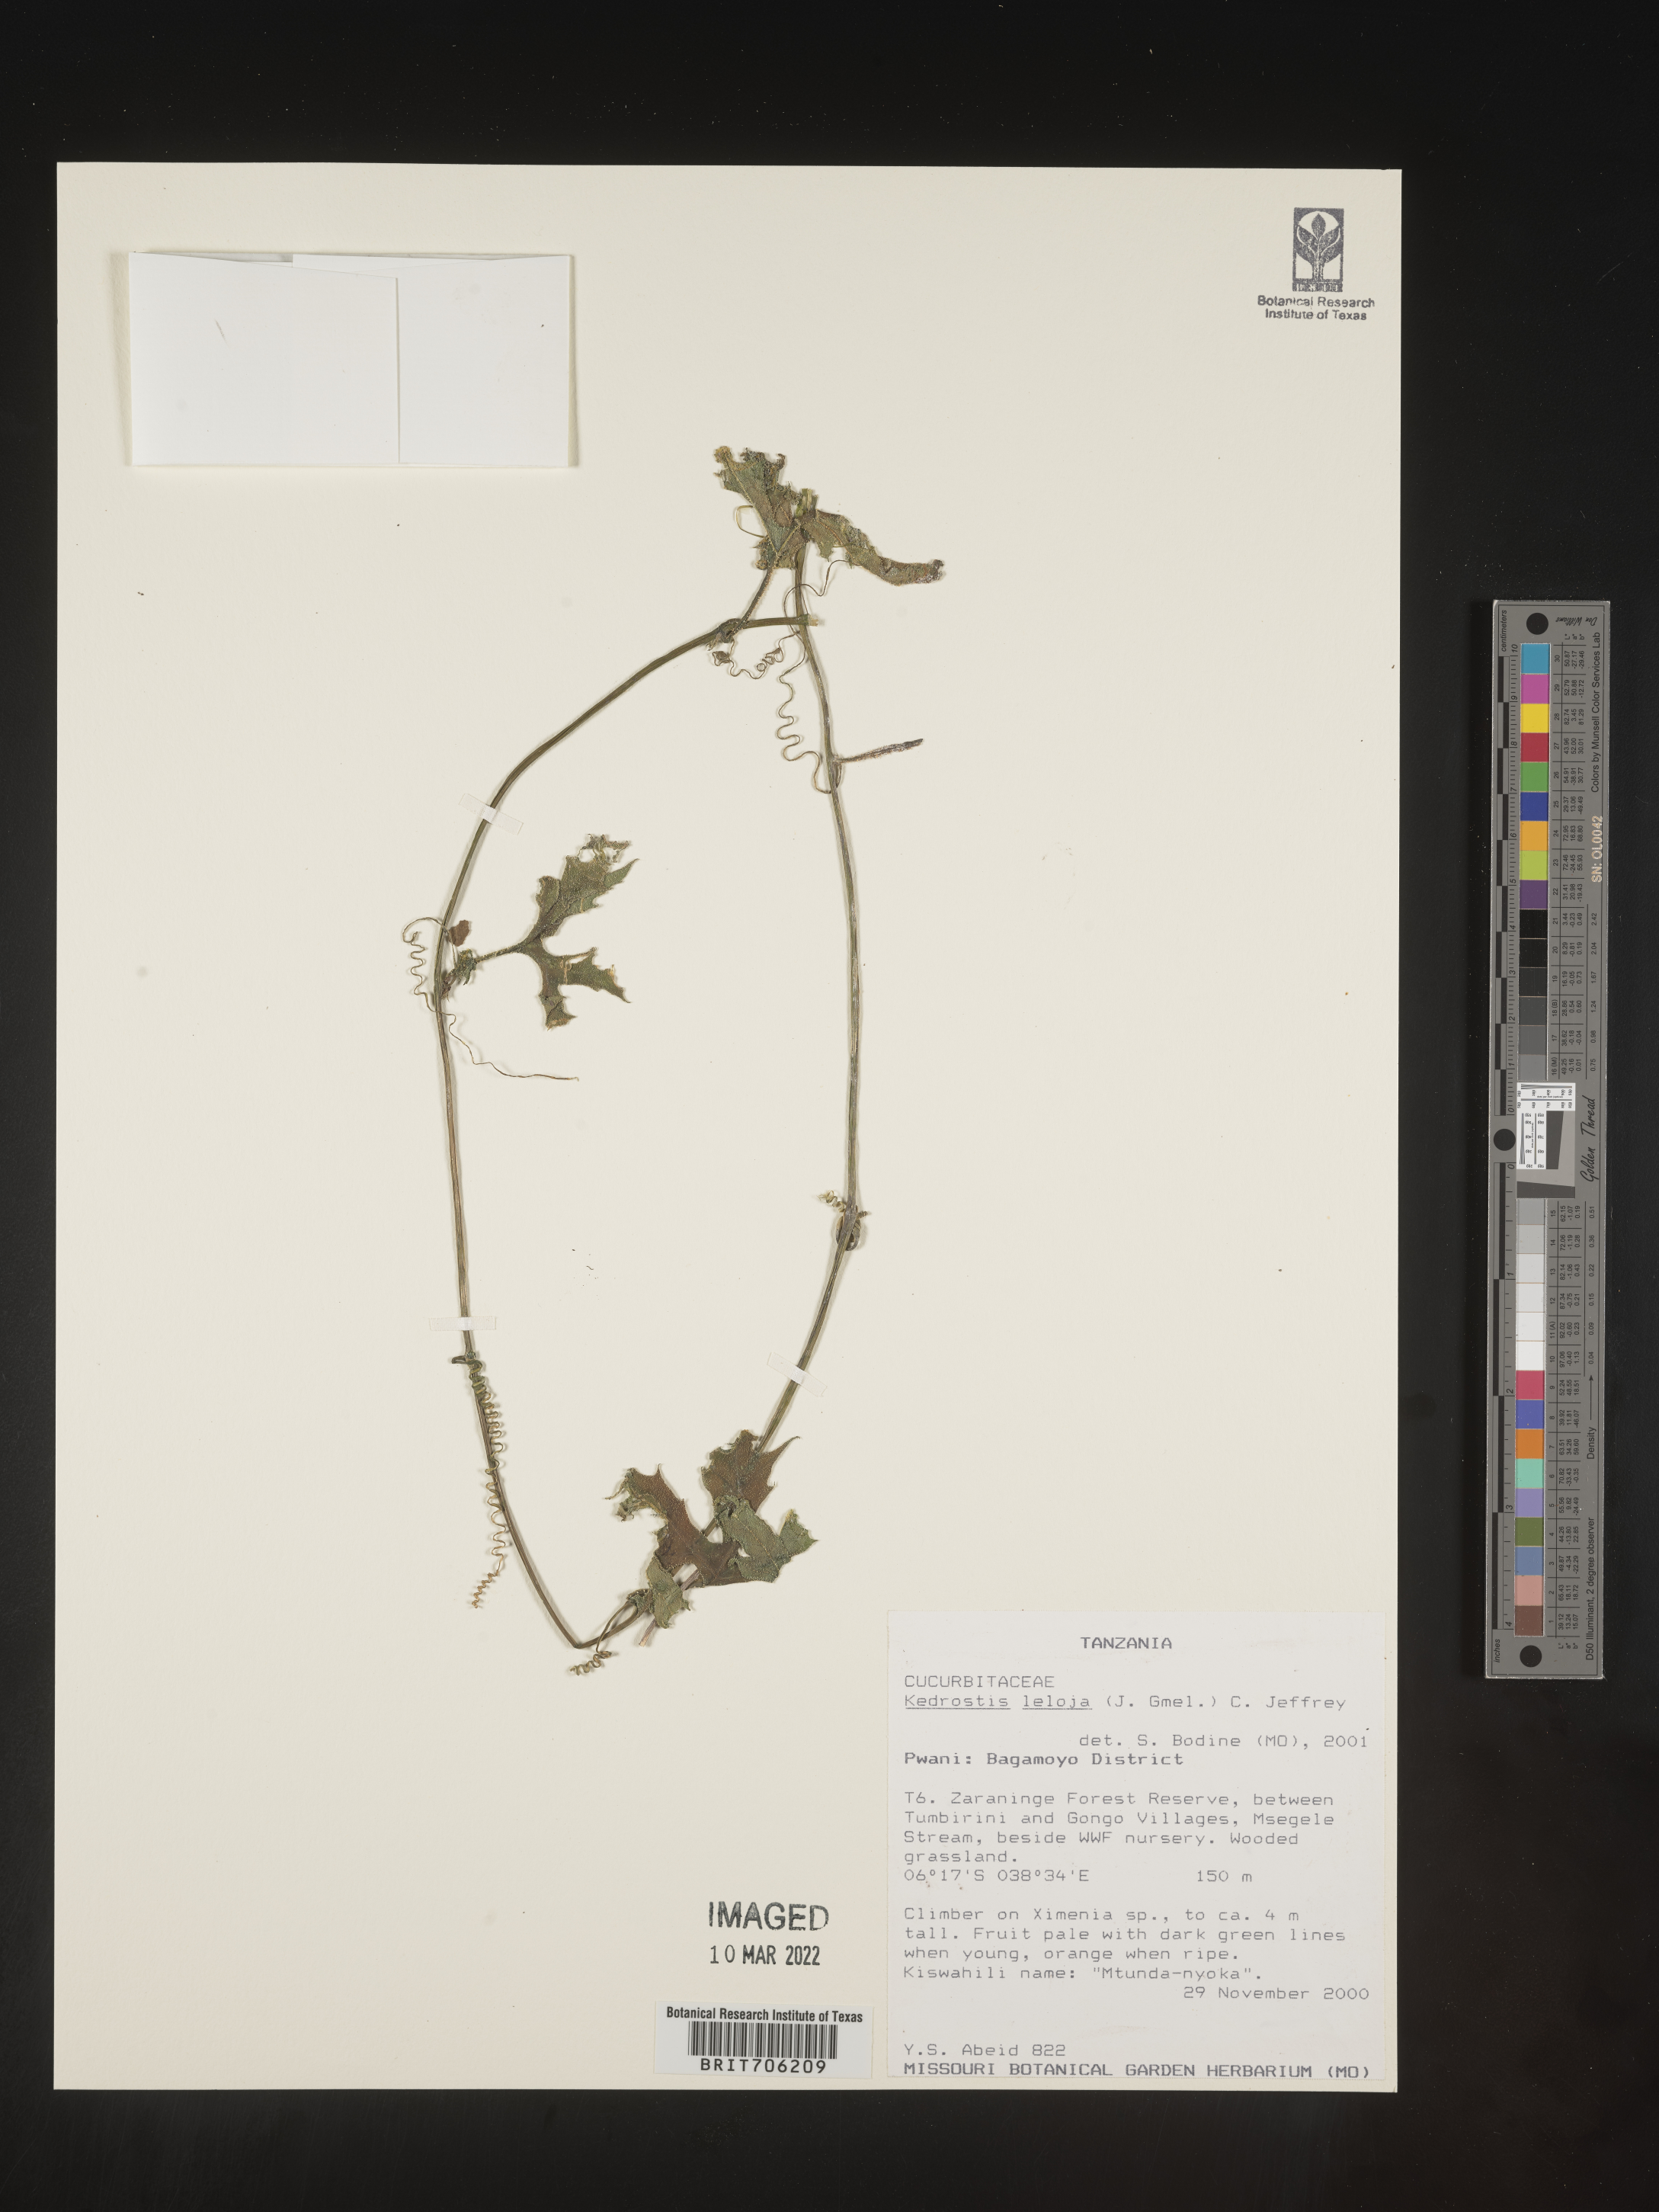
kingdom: Plantae
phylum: Tracheophyta
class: Magnoliopsida
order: Cucurbitales
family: Cucurbitaceae
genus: Kedrostis
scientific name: Kedrostis
